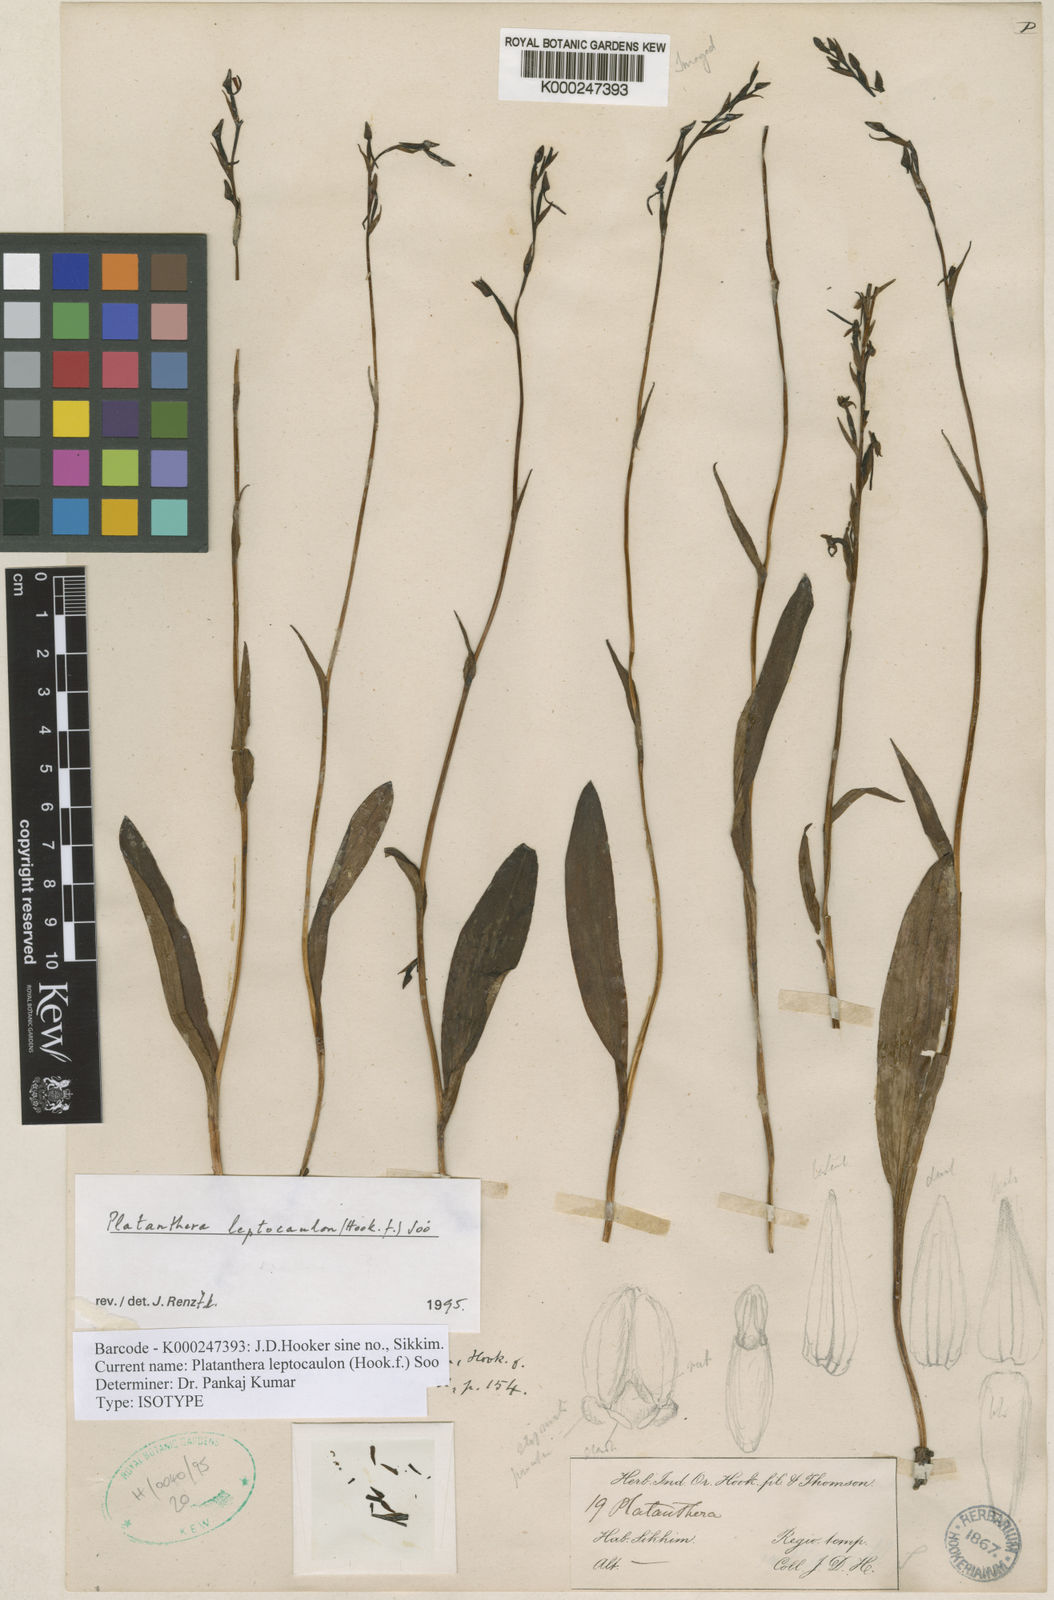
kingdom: Plantae
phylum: Tracheophyta
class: Liliopsida
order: Asparagales
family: Orchidaceae
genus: Platanthera
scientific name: Platanthera
